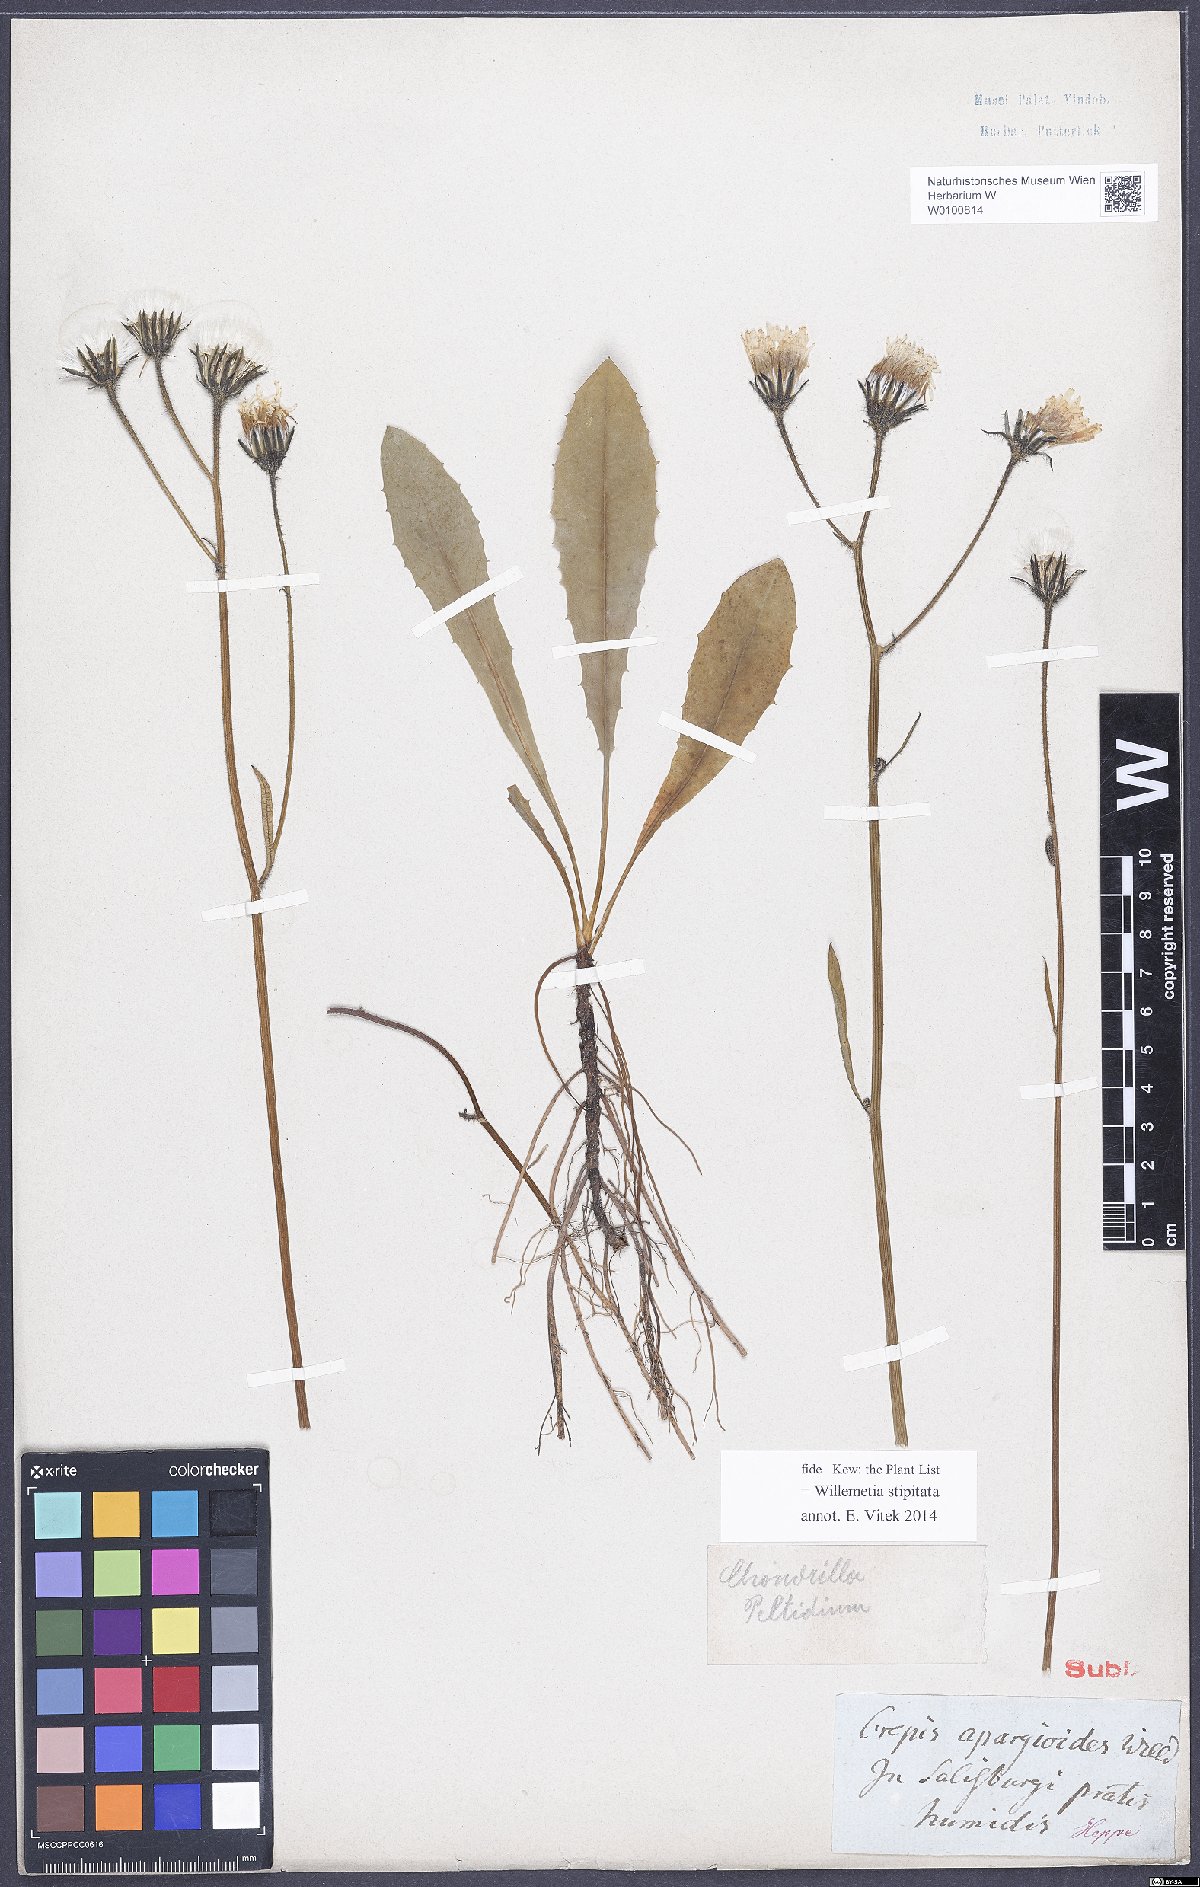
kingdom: Plantae
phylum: Tracheophyta
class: Magnoliopsida
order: Asterales
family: Asteraceae
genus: Willemetia
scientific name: Willemetia stipitata
